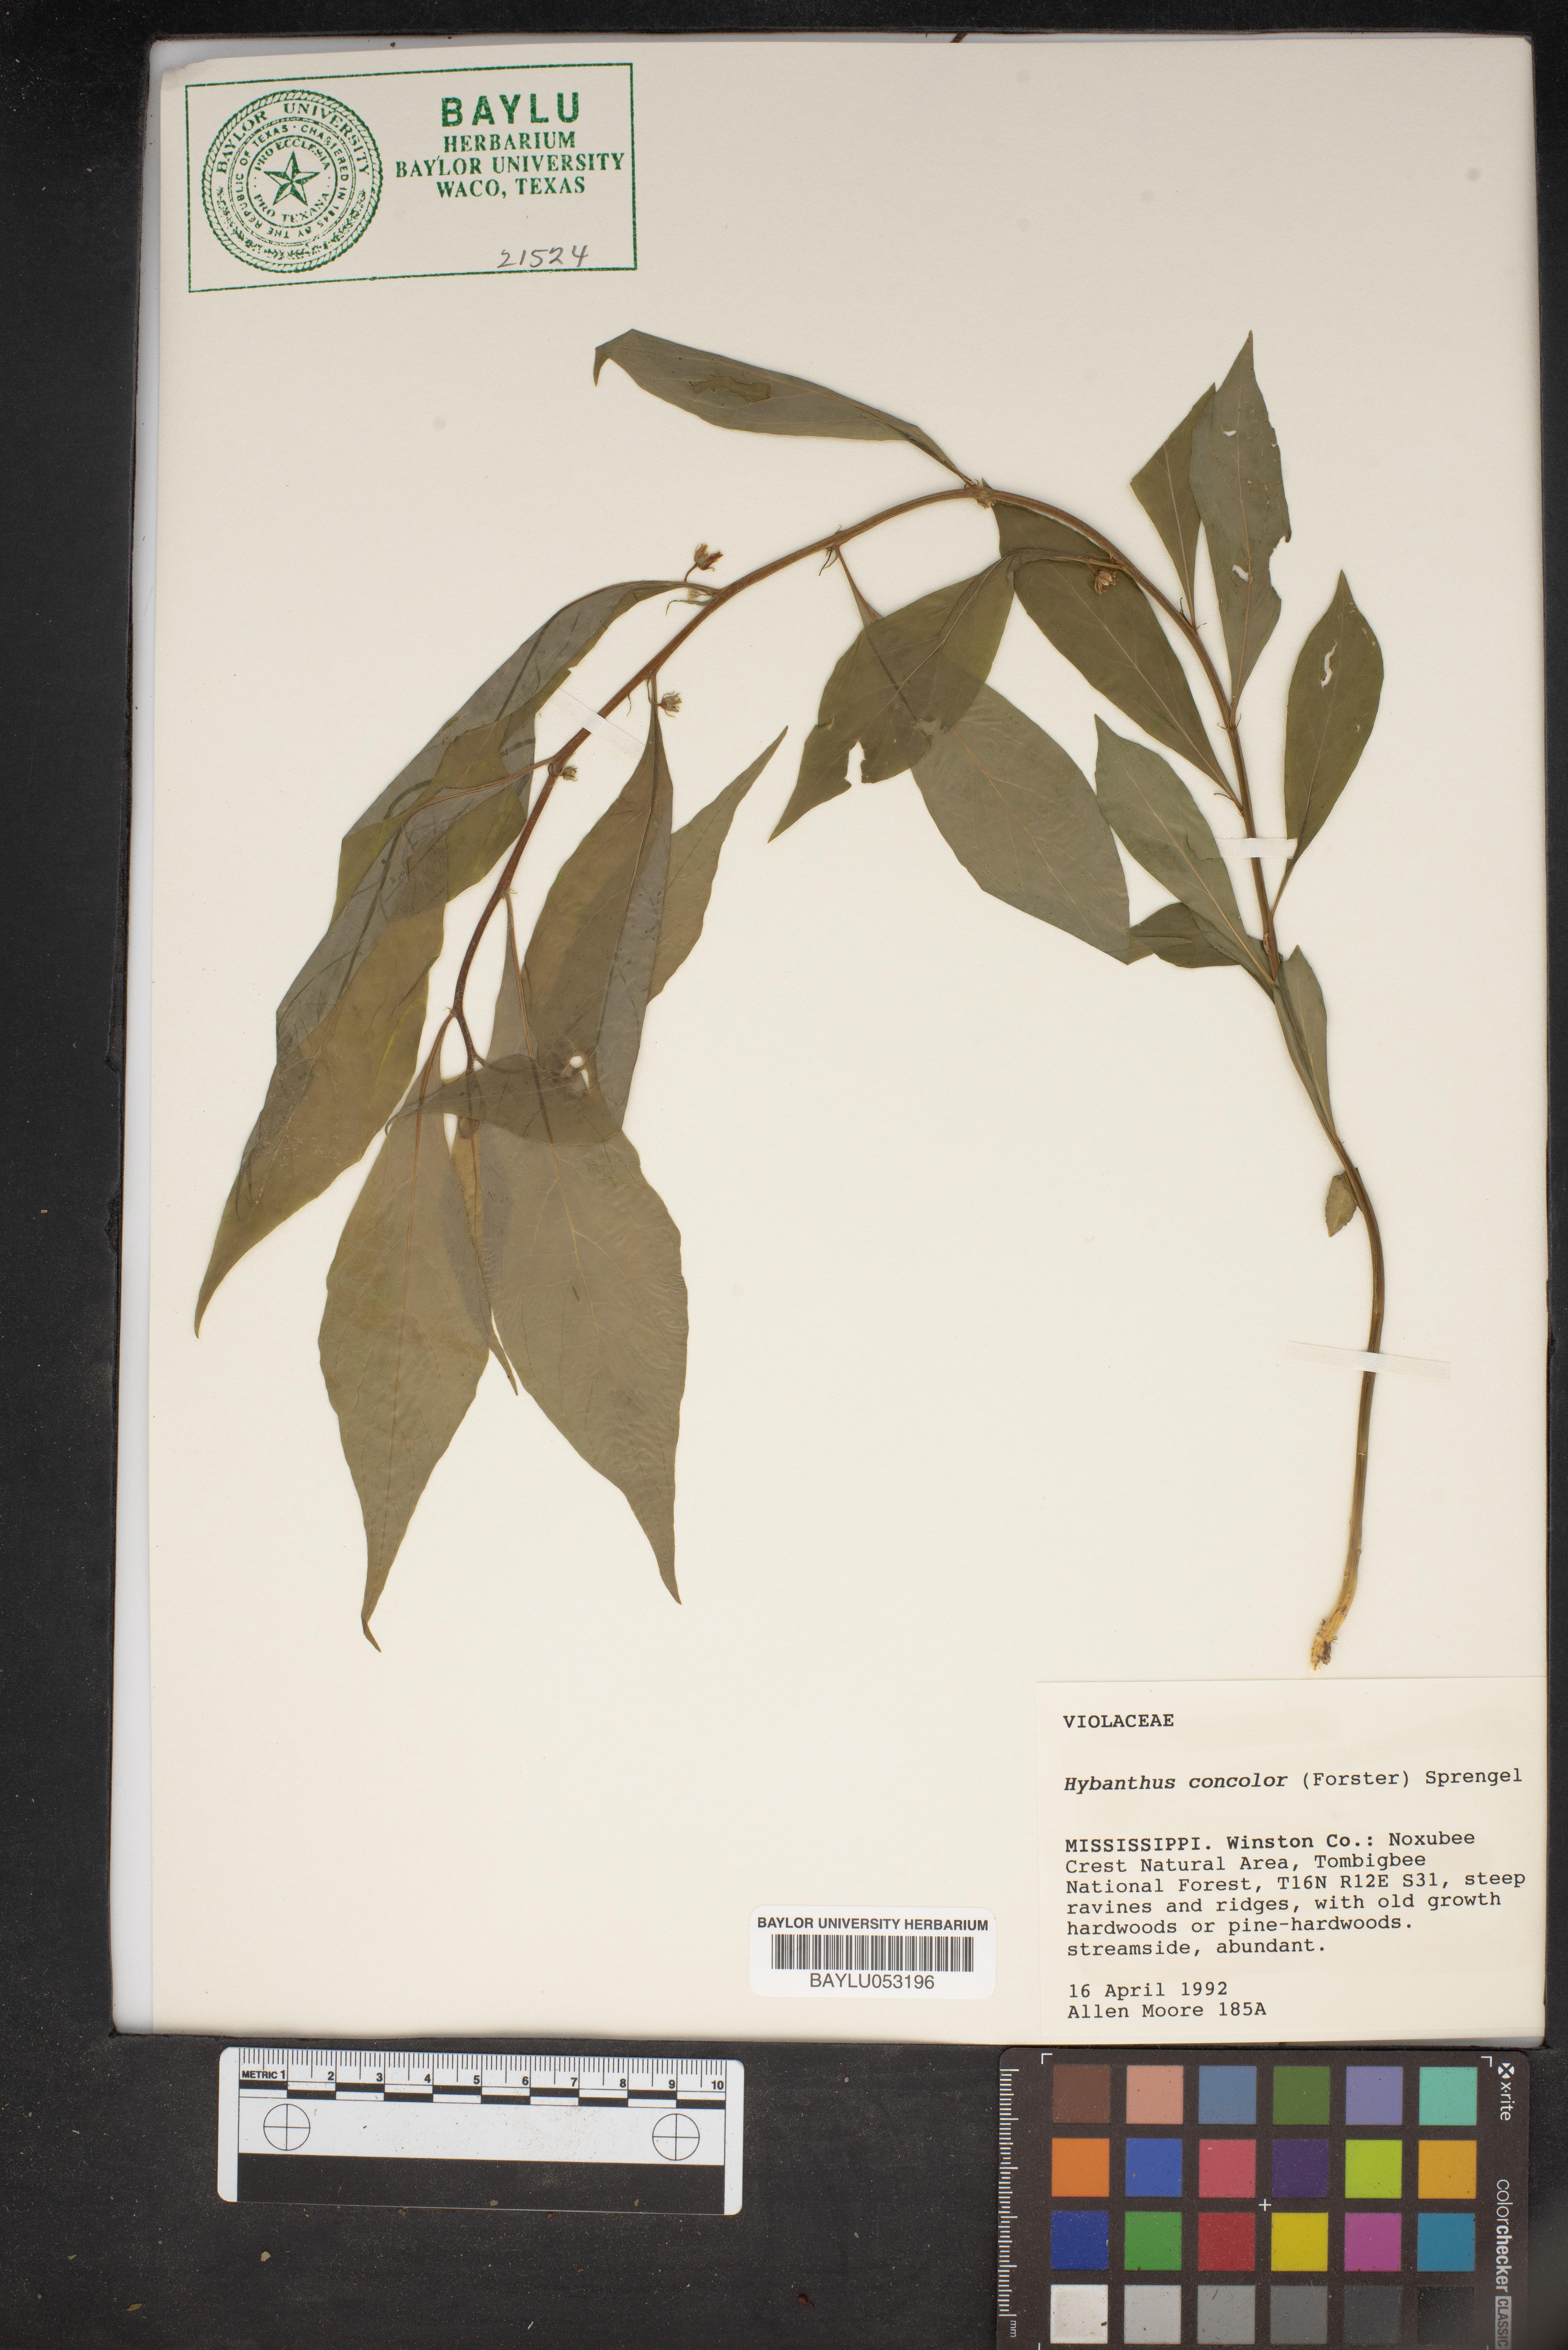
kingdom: Plantae
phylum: Tracheophyta
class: Magnoliopsida
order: Malpighiales
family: Violaceae
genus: Cubelium
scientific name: Cubelium concolor
